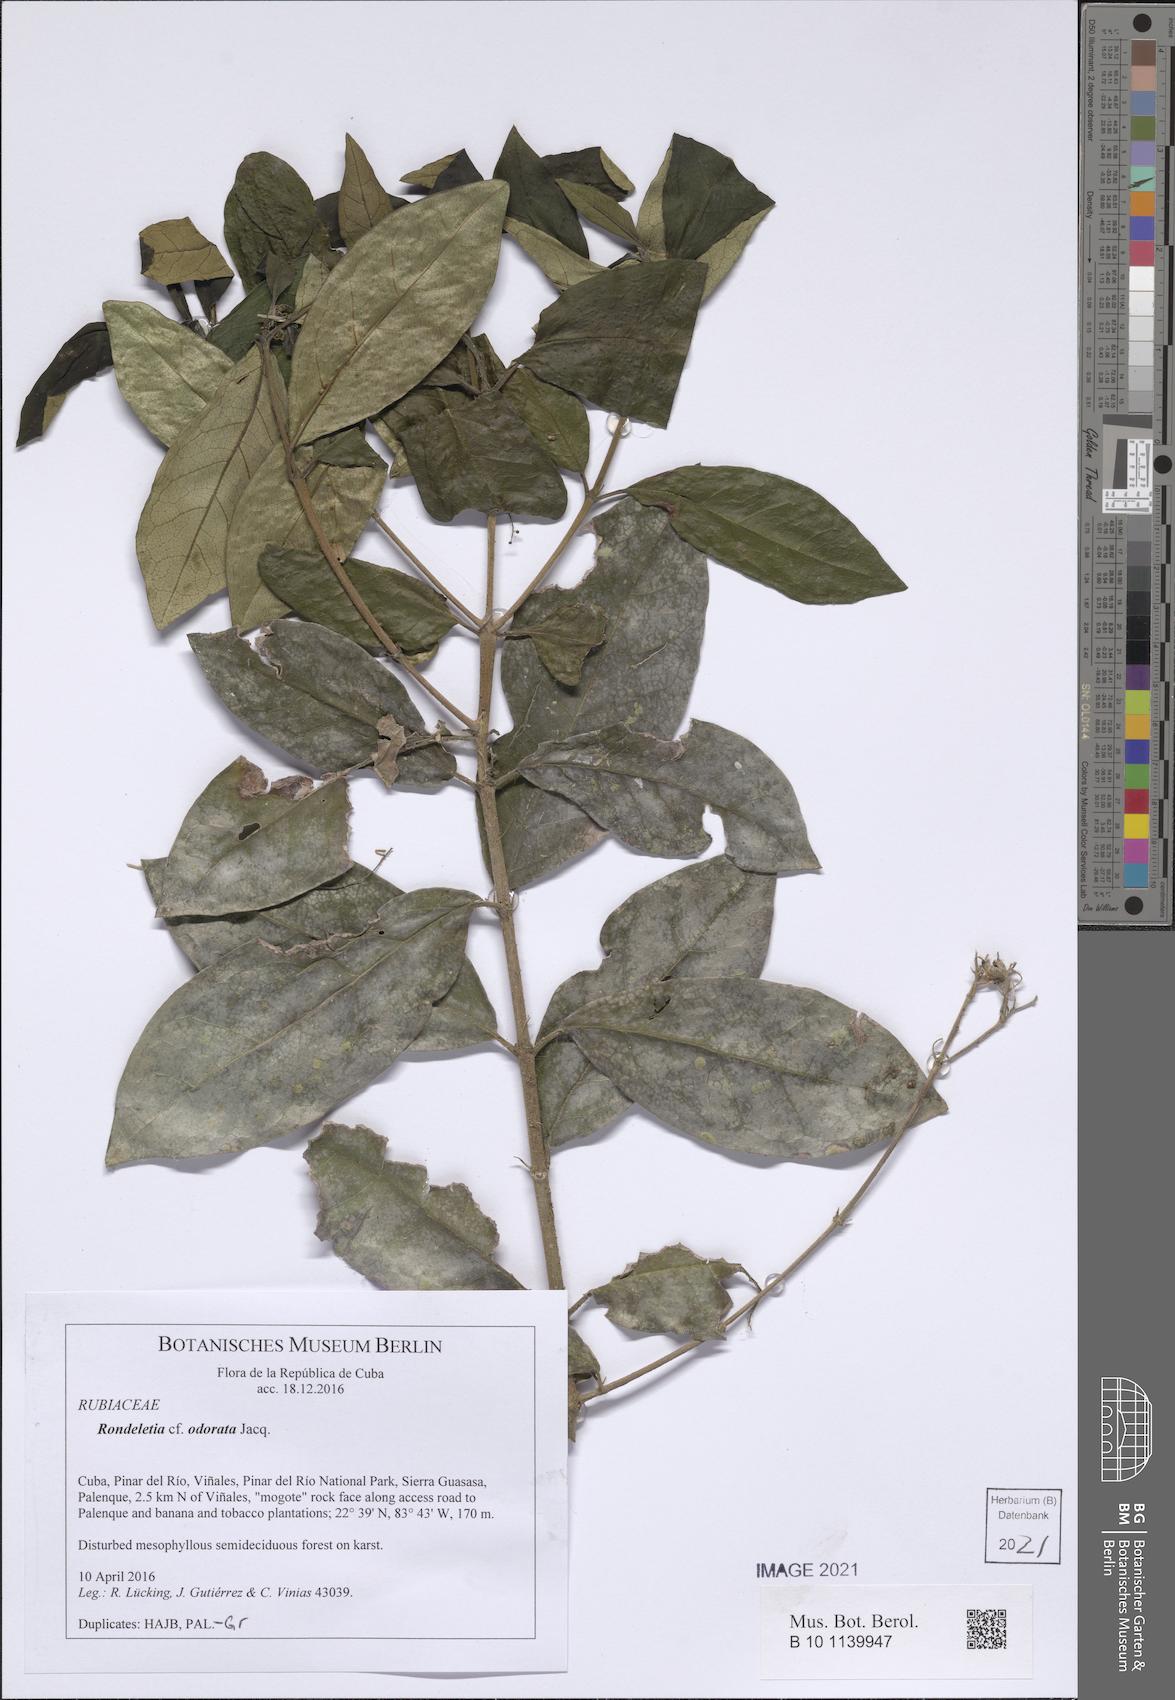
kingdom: Plantae
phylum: Tracheophyta
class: Magnoliopsida
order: Gentianales
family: Rubiaceae
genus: Rondeletia
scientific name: Rondeletia odorata
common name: Panama-rose
